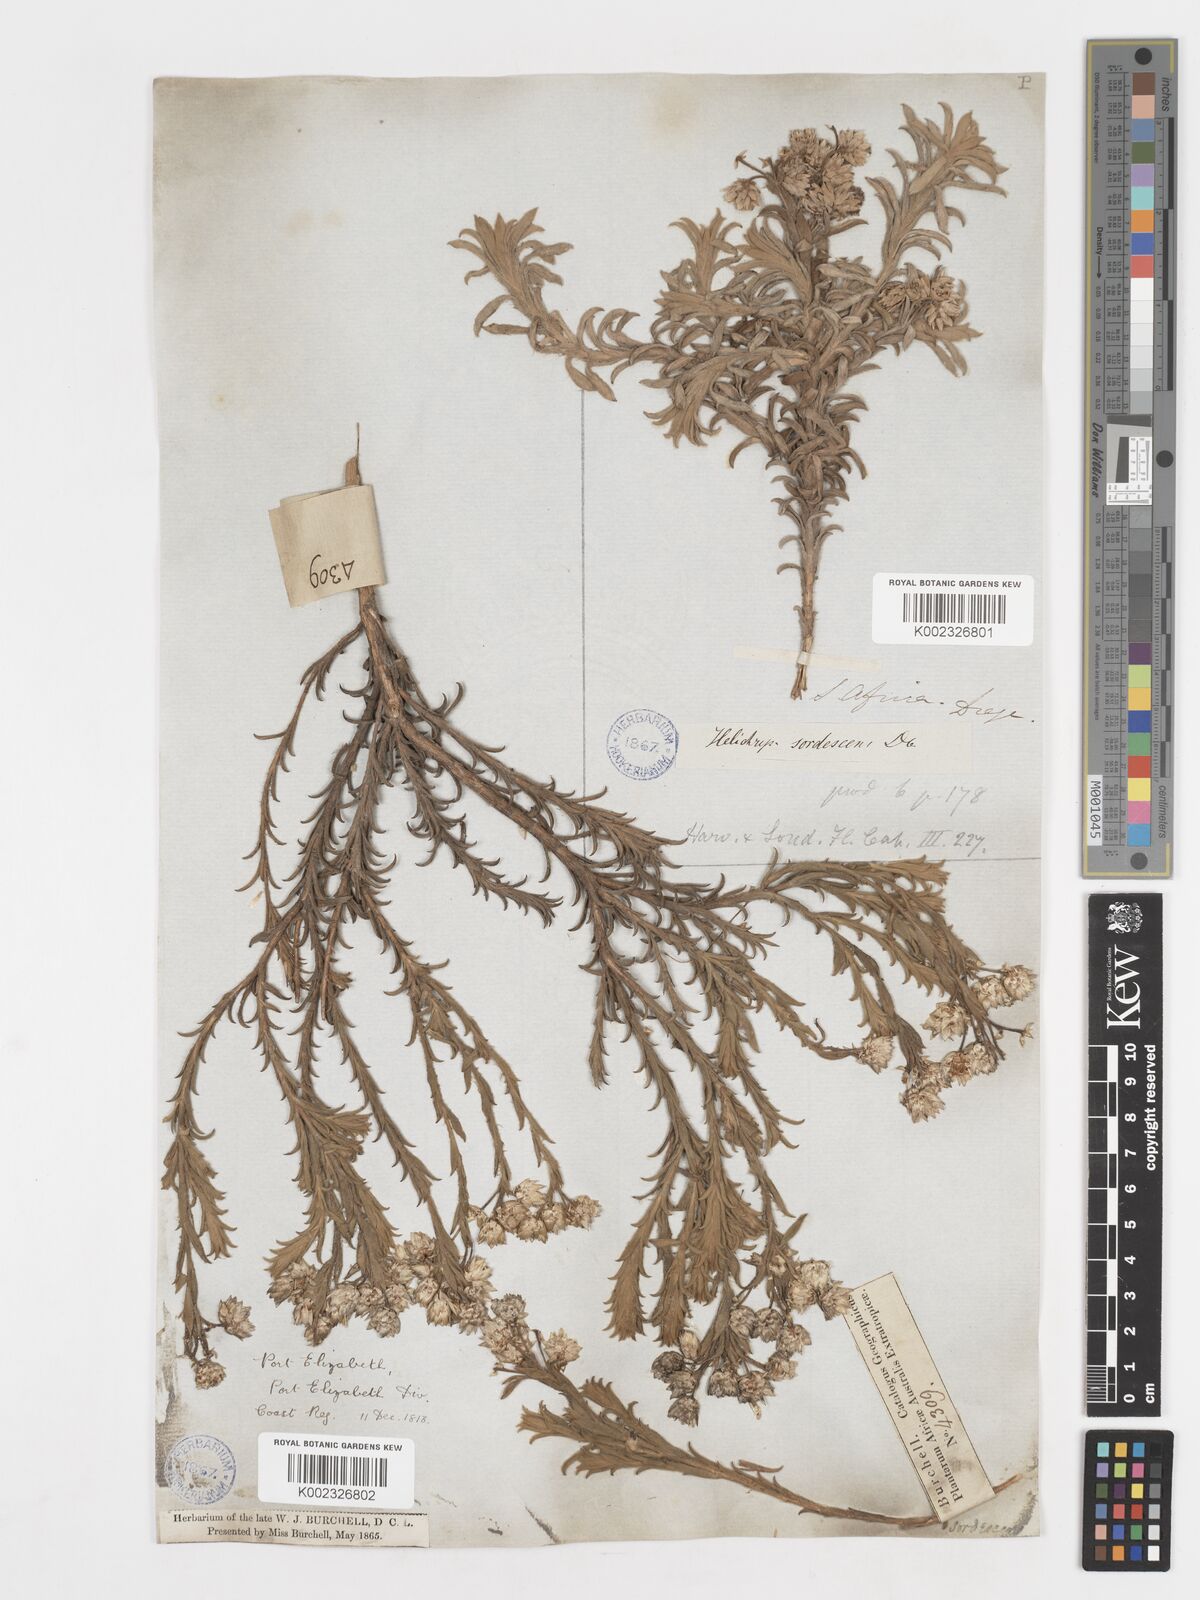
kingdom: Plantae
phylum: Tracheophyta
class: Magnoliopsida
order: Asterales
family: Asteraceae
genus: Achyranthemum
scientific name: Achyranthemum sordescens
